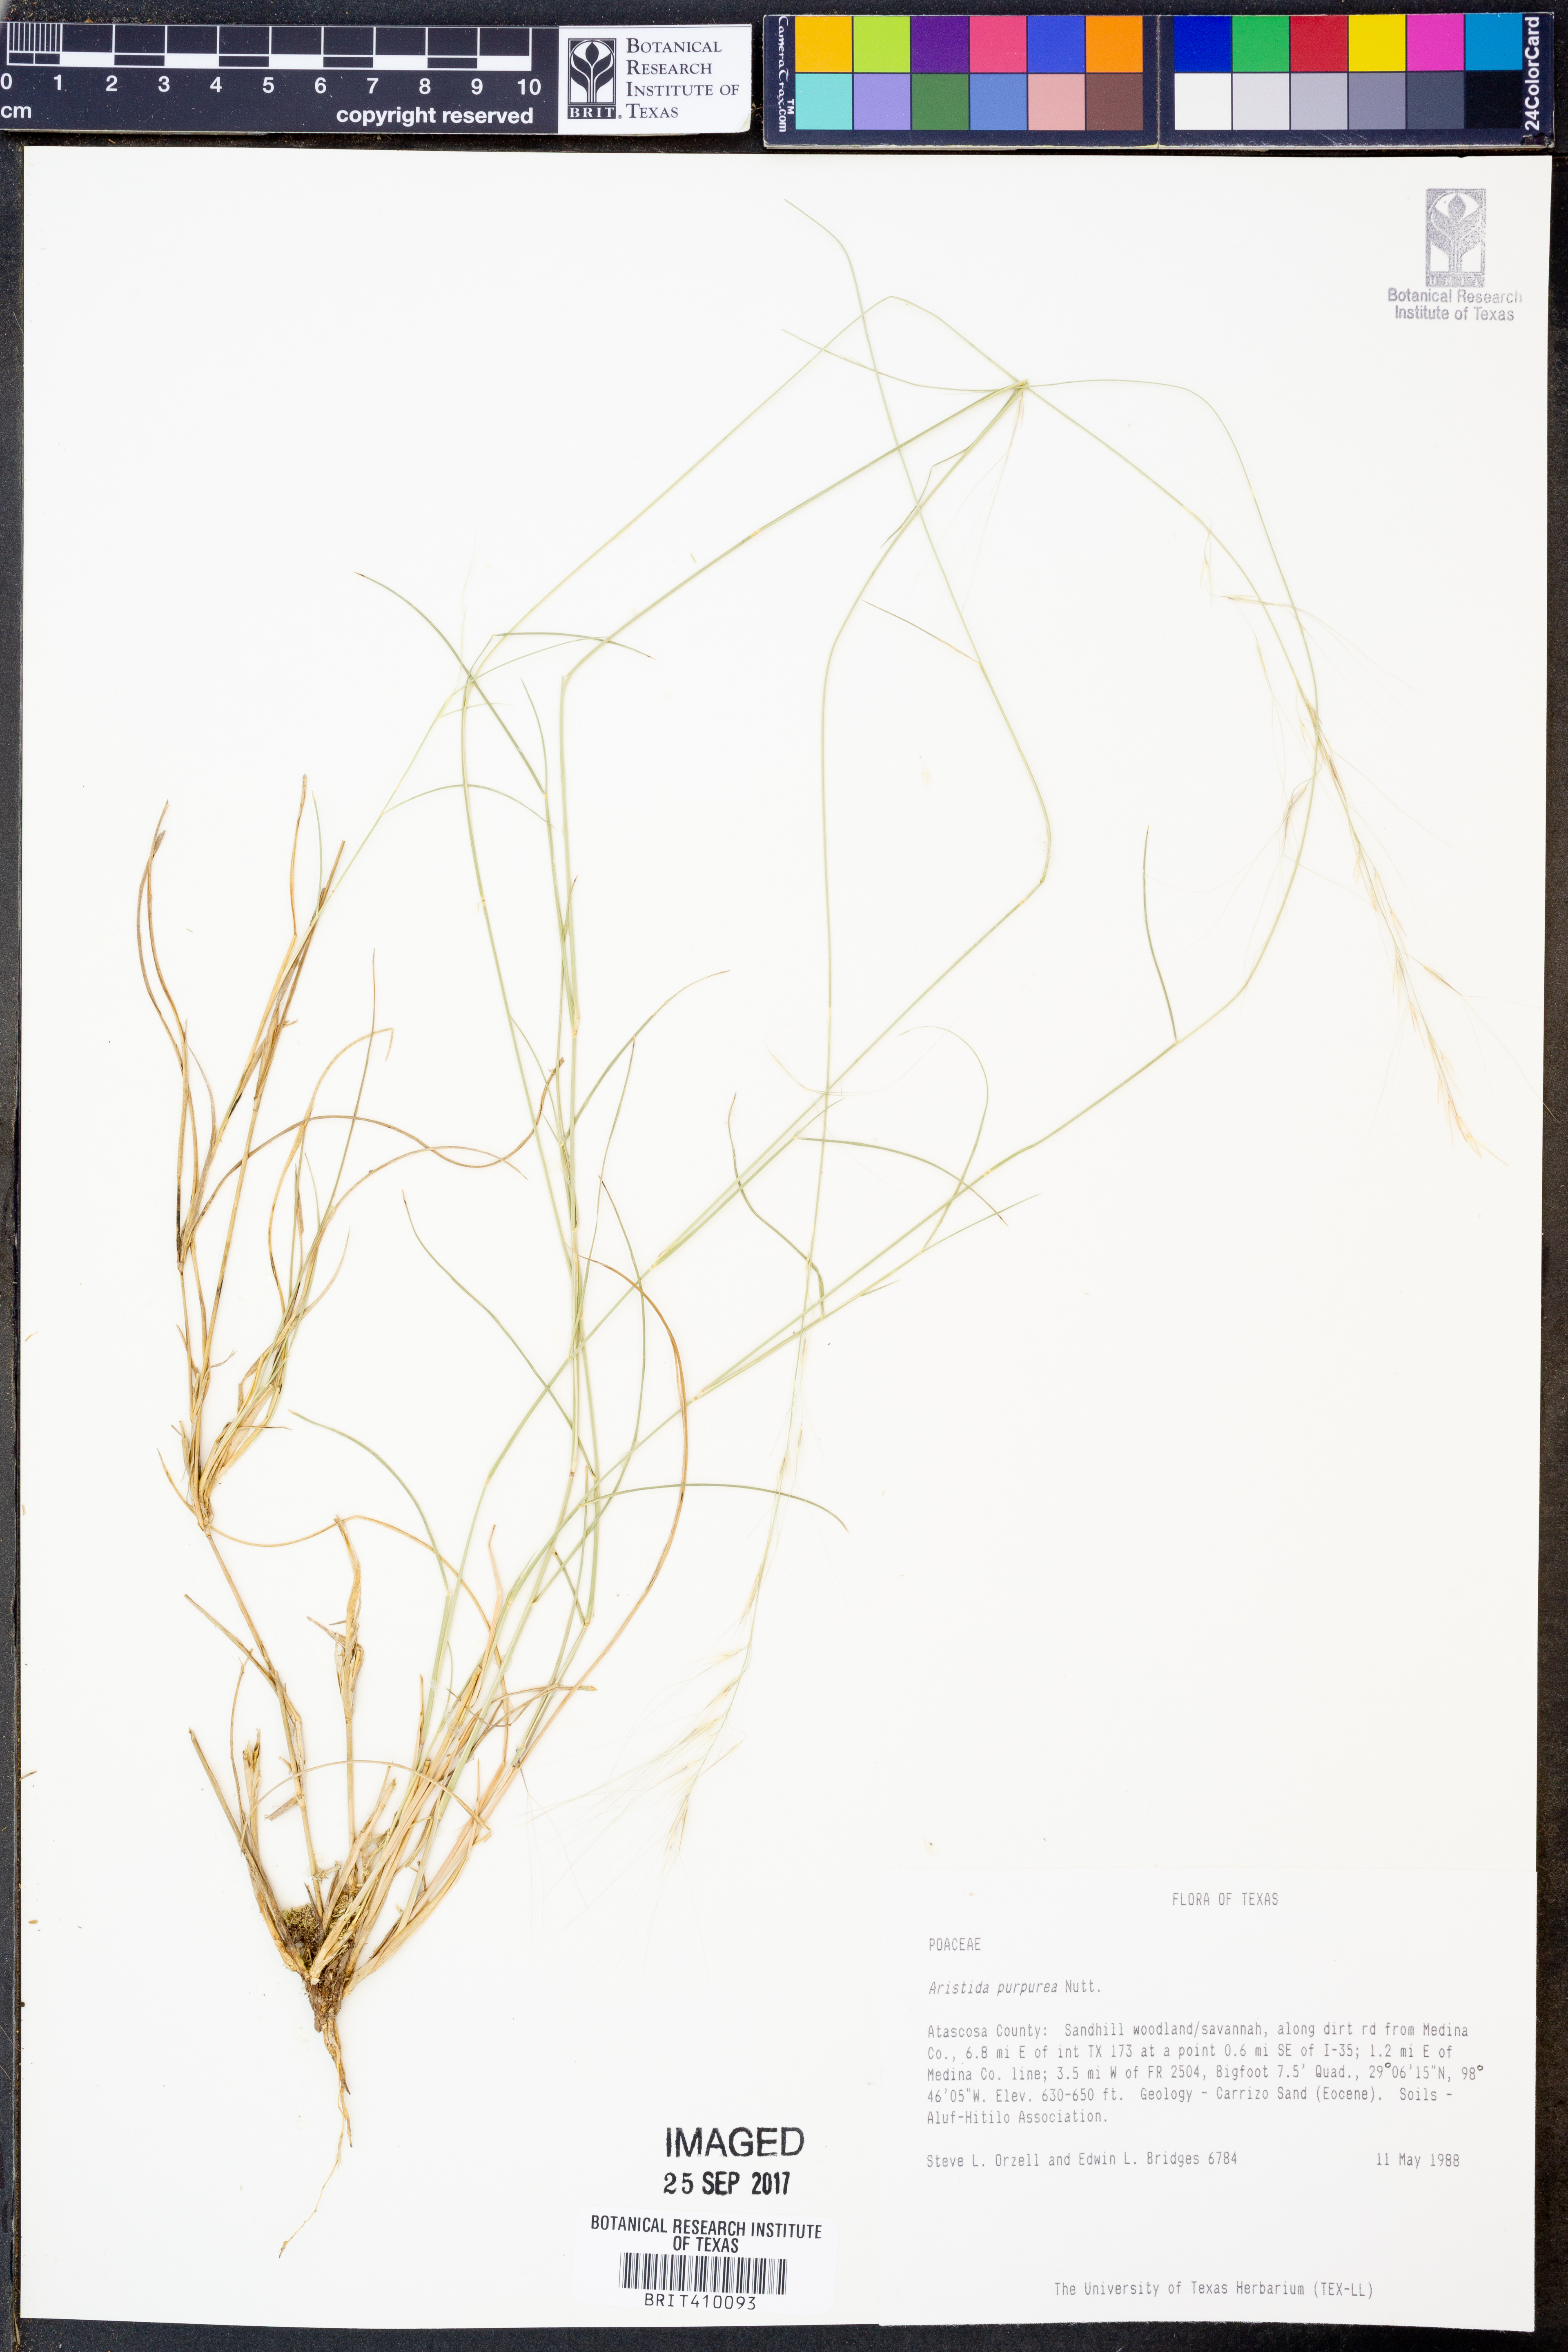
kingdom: Plantae
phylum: Tracheophyta
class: Liliopsida
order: Poales
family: Poaceae
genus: Aristida
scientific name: Aristida purpurea
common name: Purple threeawn
